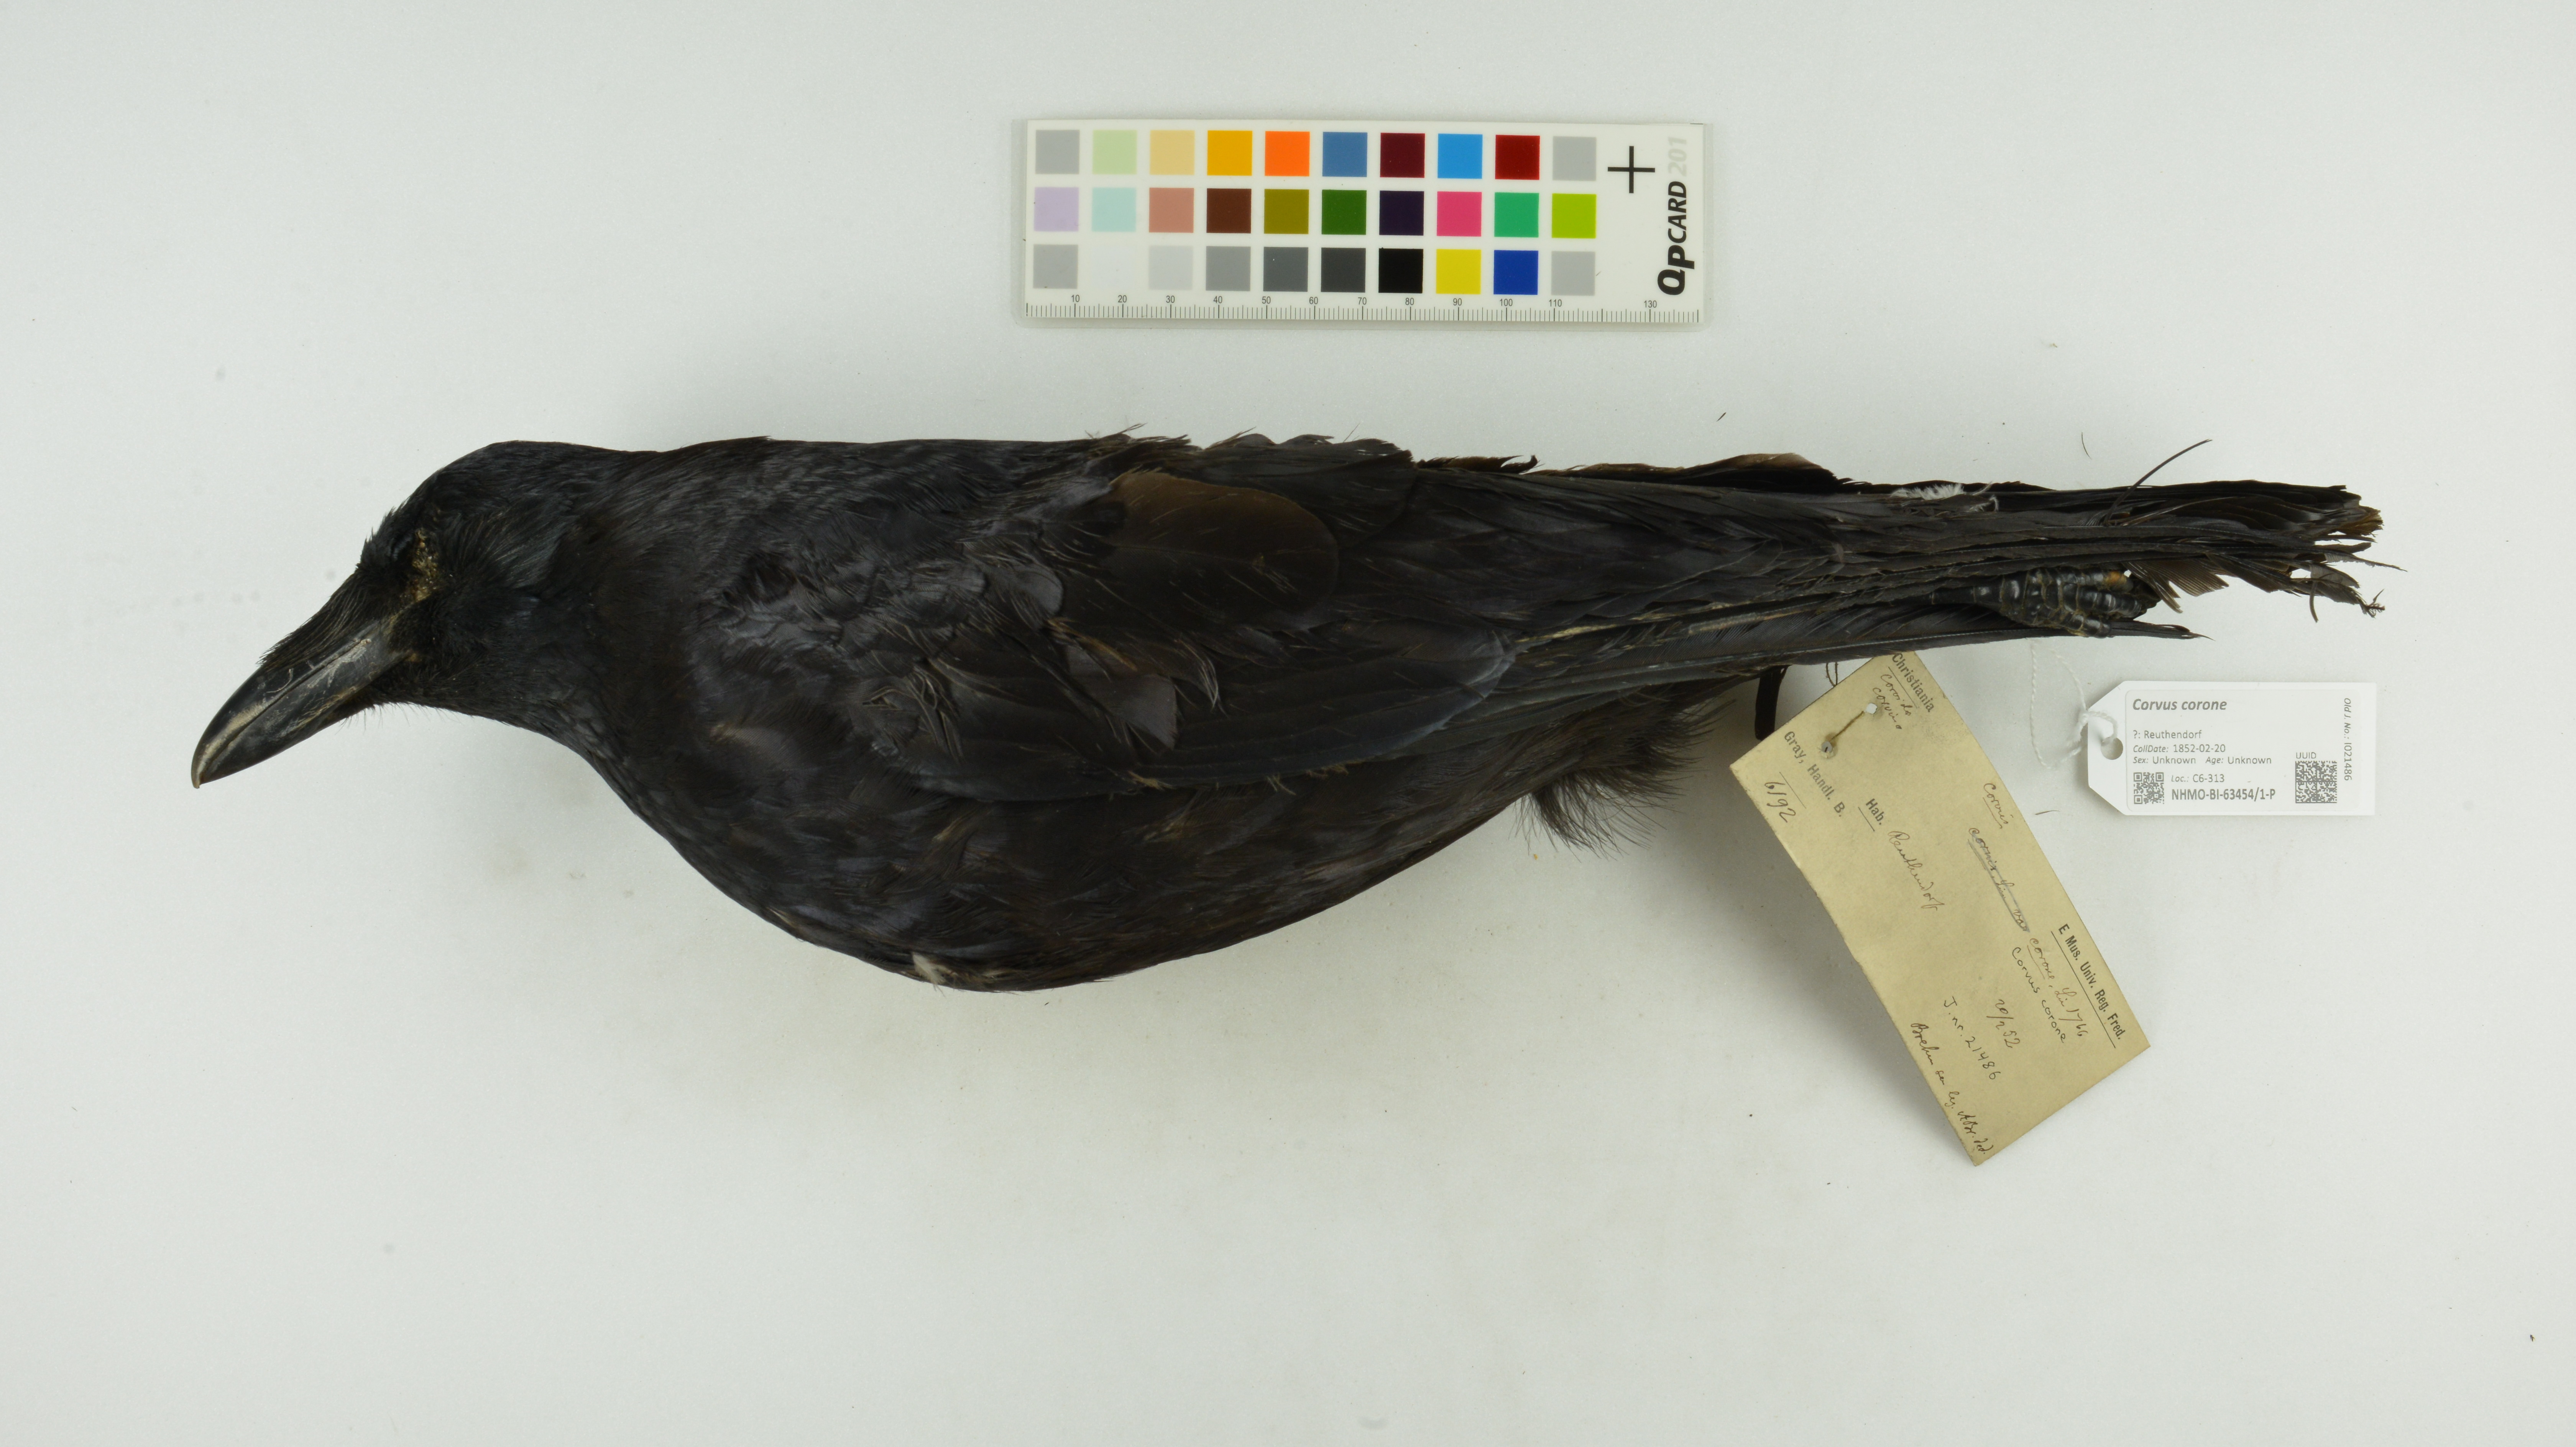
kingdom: Animalia
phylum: Chordata
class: Aves
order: Passeriformes
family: Corvidae
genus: Corvus
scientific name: Corvus corone
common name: Carrion crow
